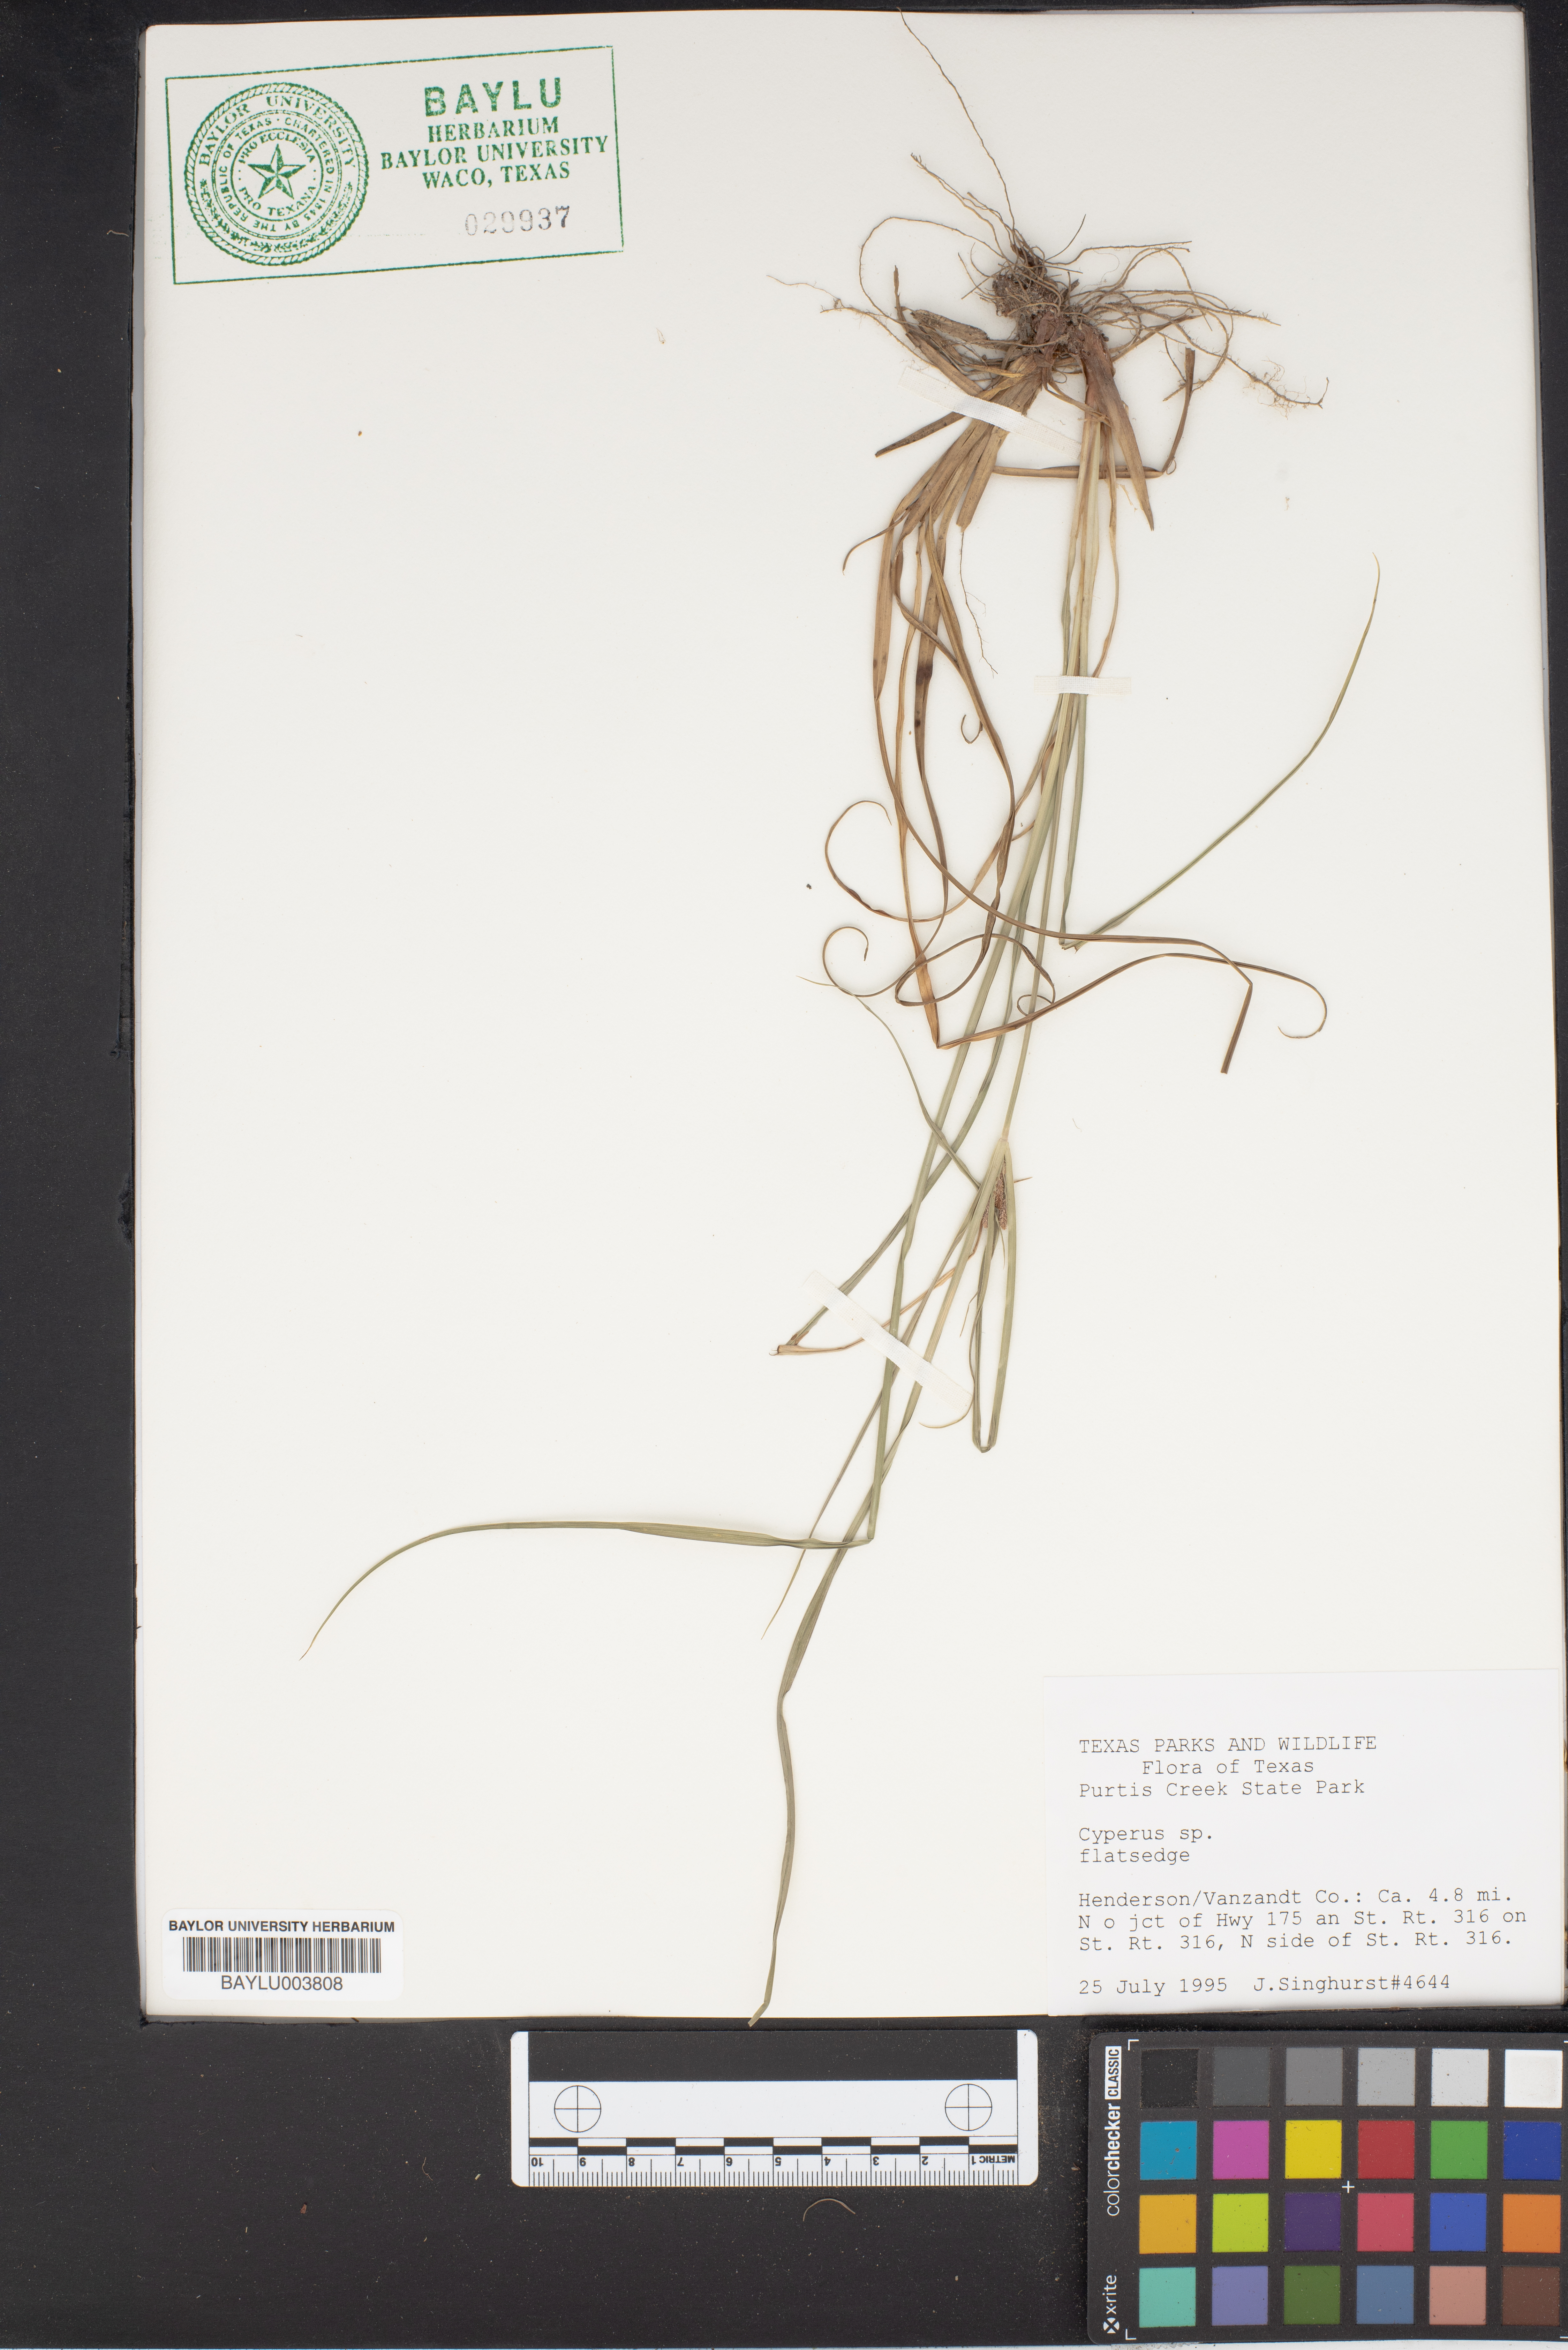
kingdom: Plantae
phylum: Tracheophyta
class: Liliopsida
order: Poales
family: Cyperaceae
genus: Cyperus
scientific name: Cyperus
